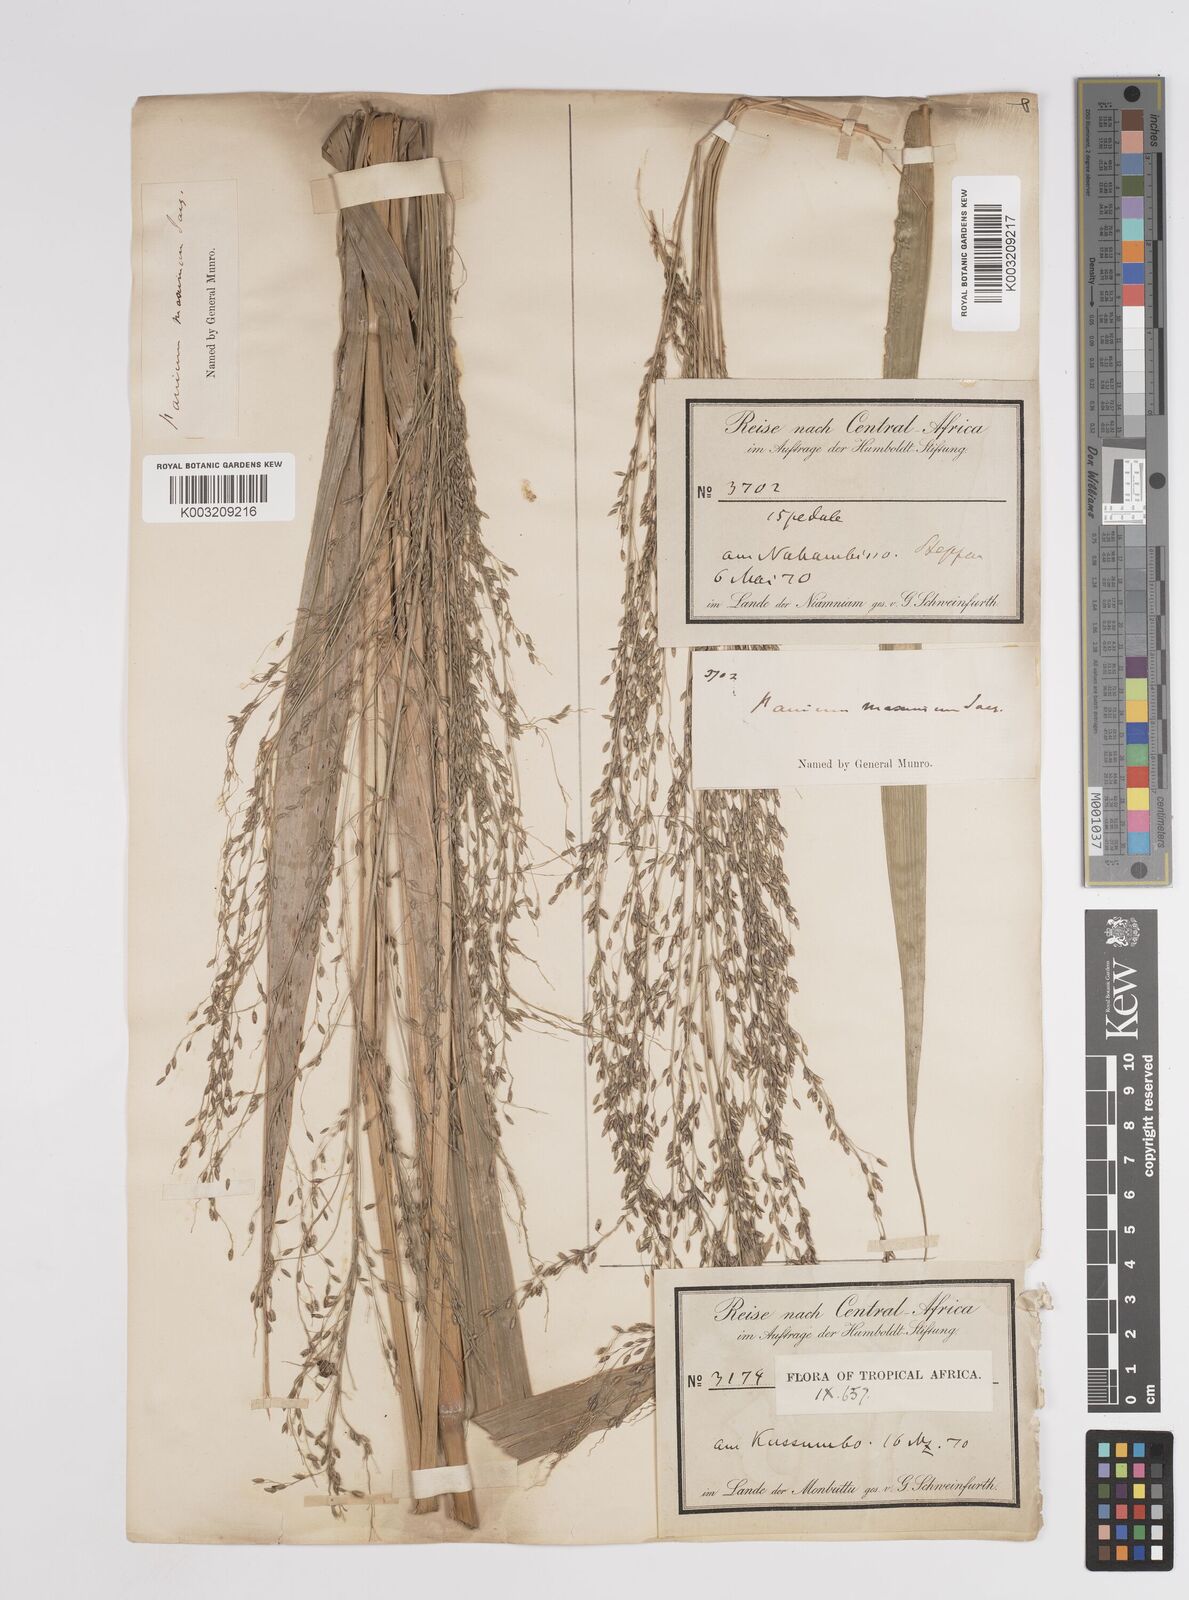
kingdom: Plantae
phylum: Tracheophyta
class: Liliopsida
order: Poales
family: Poaceae
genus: Megathyrsus
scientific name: Megathyrsus maximus
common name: Guineagrass
